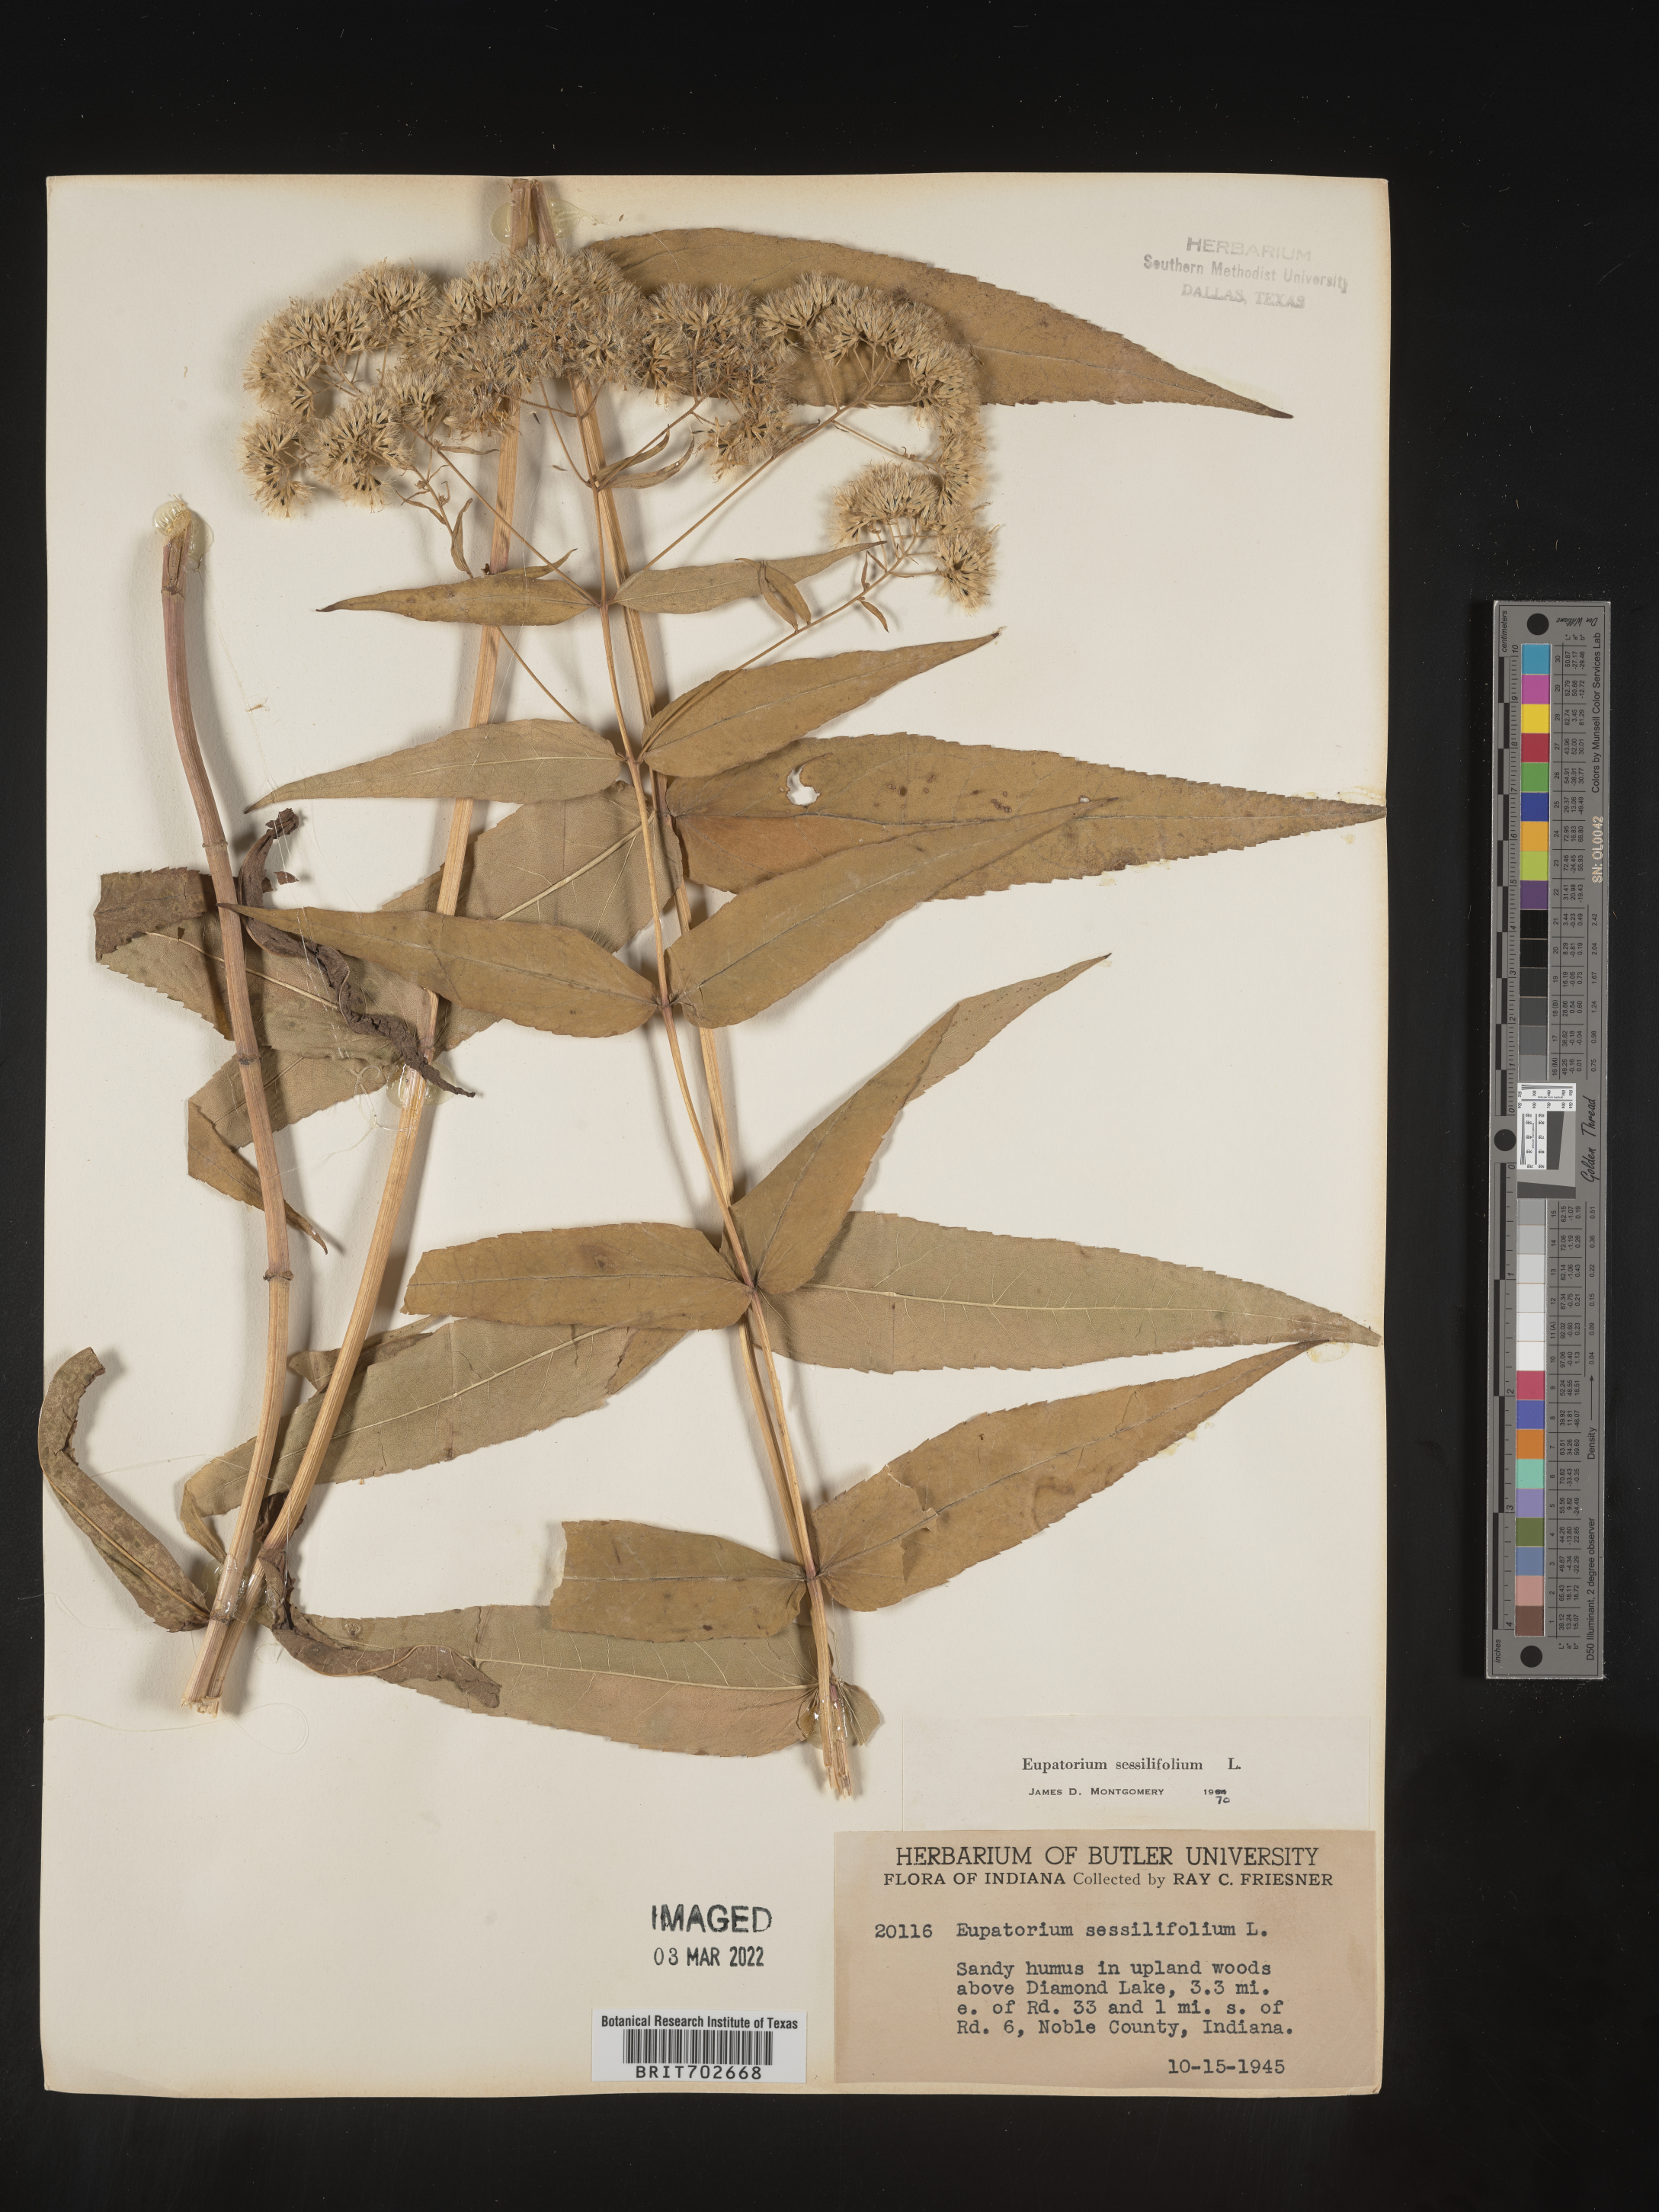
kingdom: Plantae
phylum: Tracheophyta
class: Magnoliopsida
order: Asterales
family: Asteraceae
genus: Eupatorium
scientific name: Eupatorium sessilifolium
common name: Upland boneset
